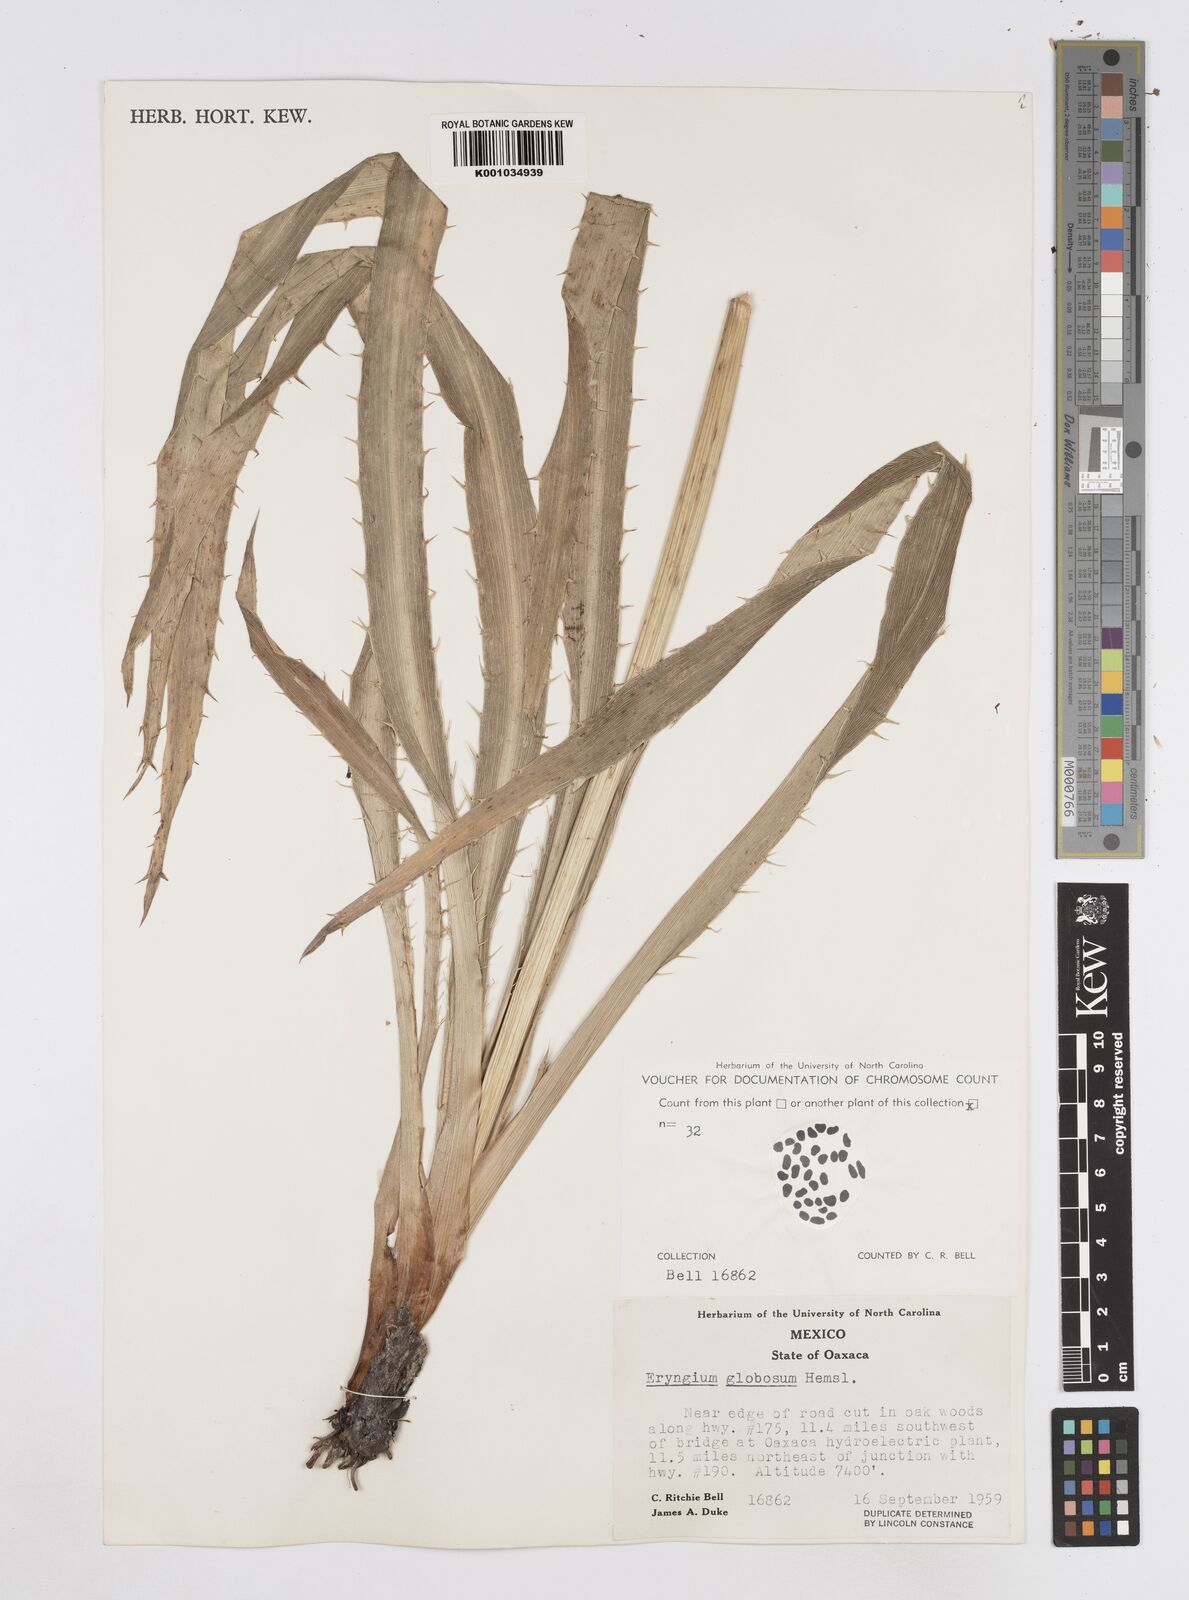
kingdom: Plantae
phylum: Tracheophyta
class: Magnoliopsida
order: Apiales
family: Apiaceae
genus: Eryngium
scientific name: Eryngium palmeri
